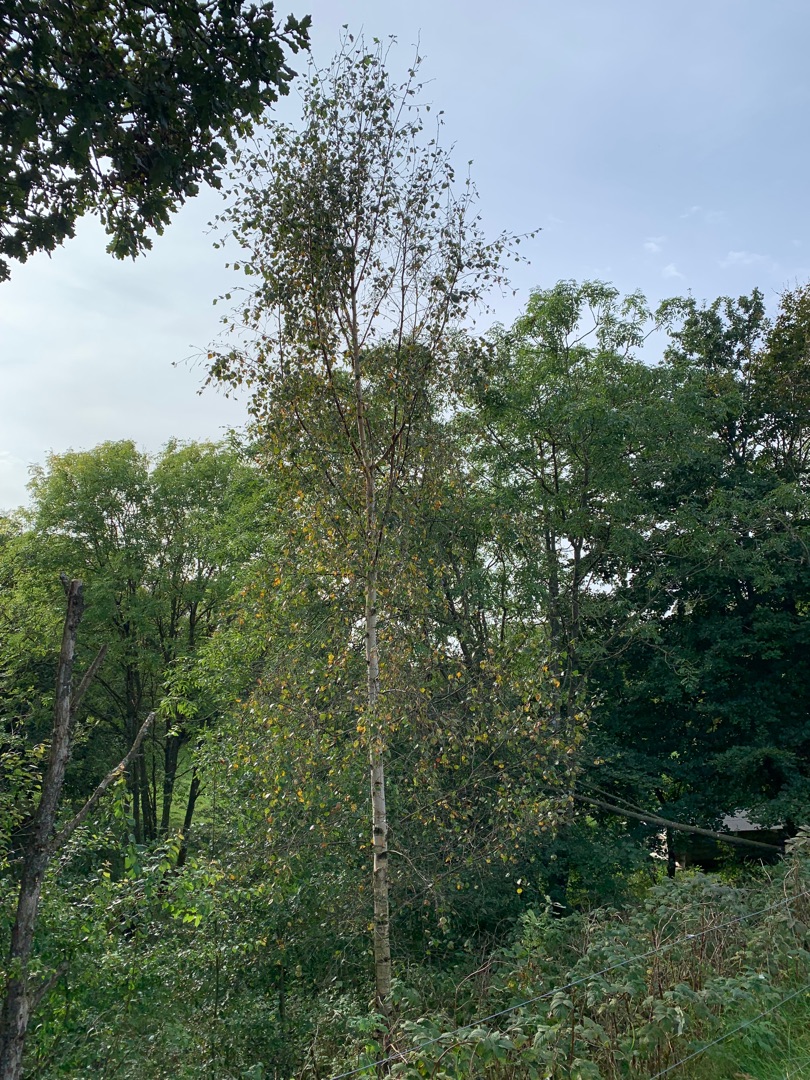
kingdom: Plantae
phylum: Tracheophyta
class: Magnoliopsida
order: Fagales
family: Betulaceae
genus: Betula
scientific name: Betula pendula
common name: Vorte-birk
